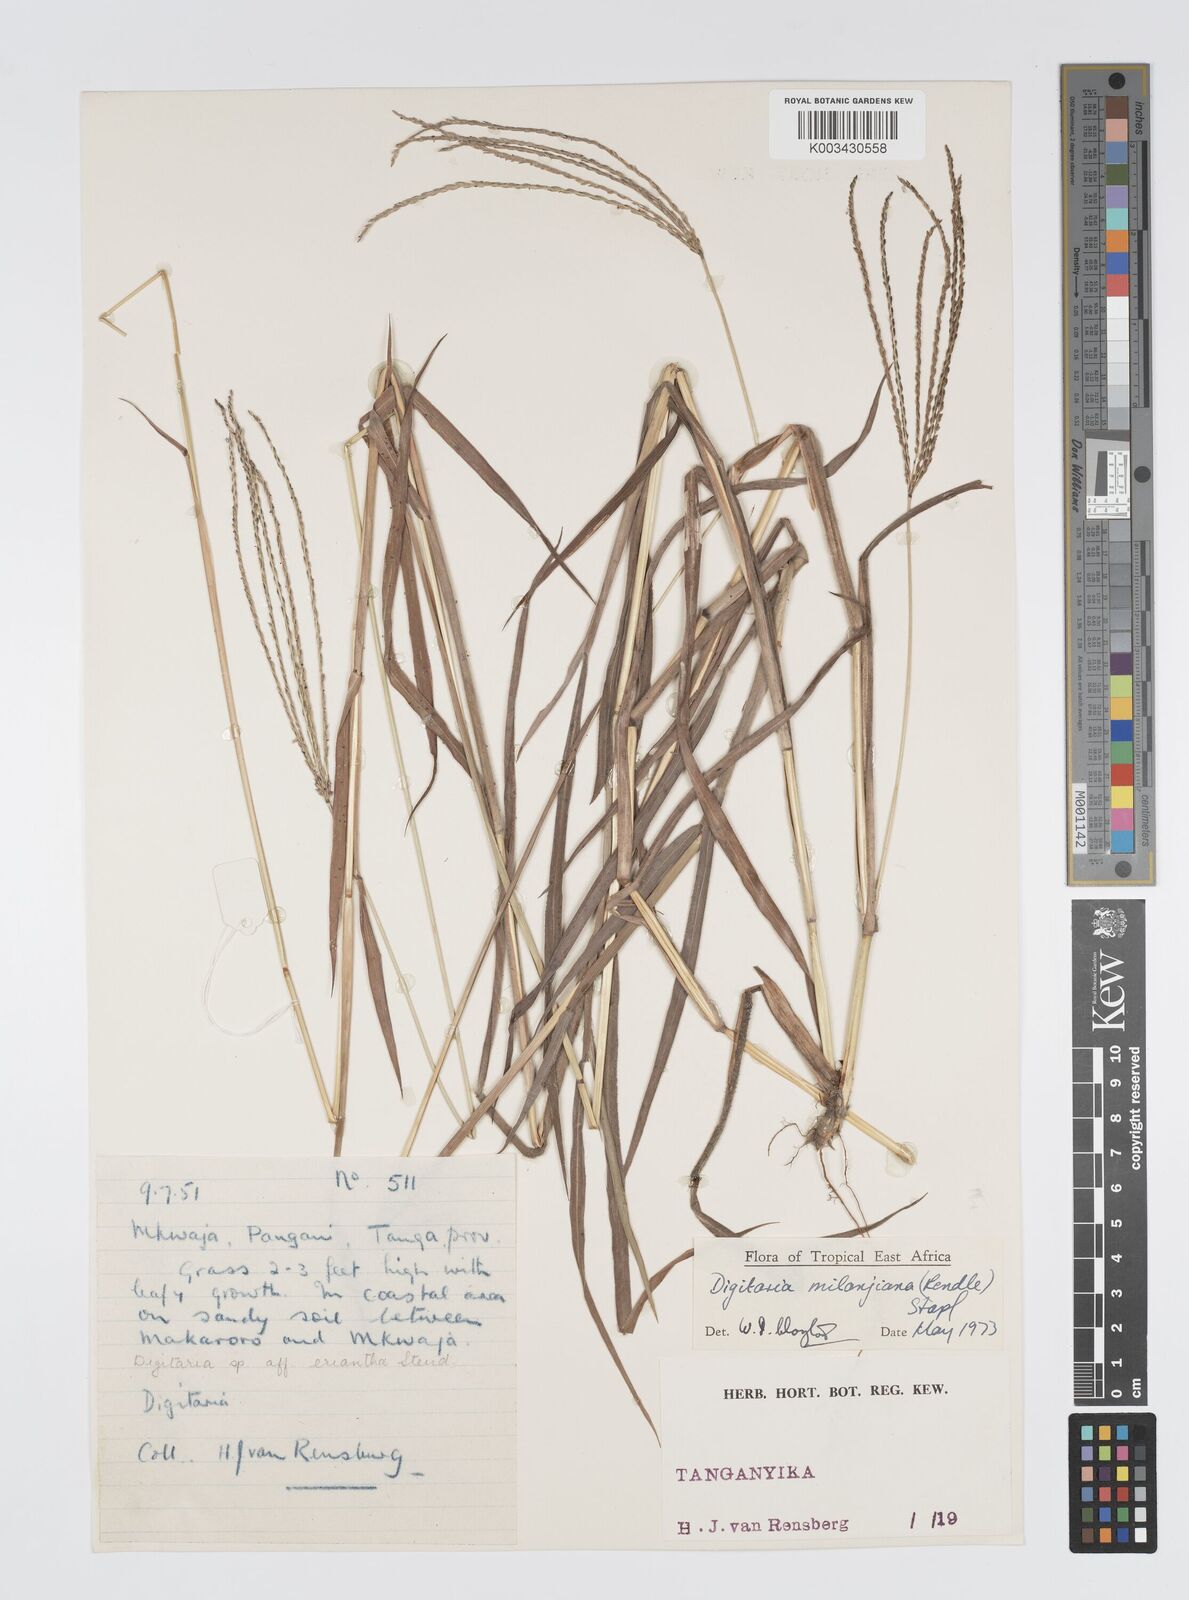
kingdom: Plantae
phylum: Tracheophyta
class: Liliopsida
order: Poales
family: Poaceae
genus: Digitaria
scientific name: Digitaria milanjiana
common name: Madagascar crabgrass
